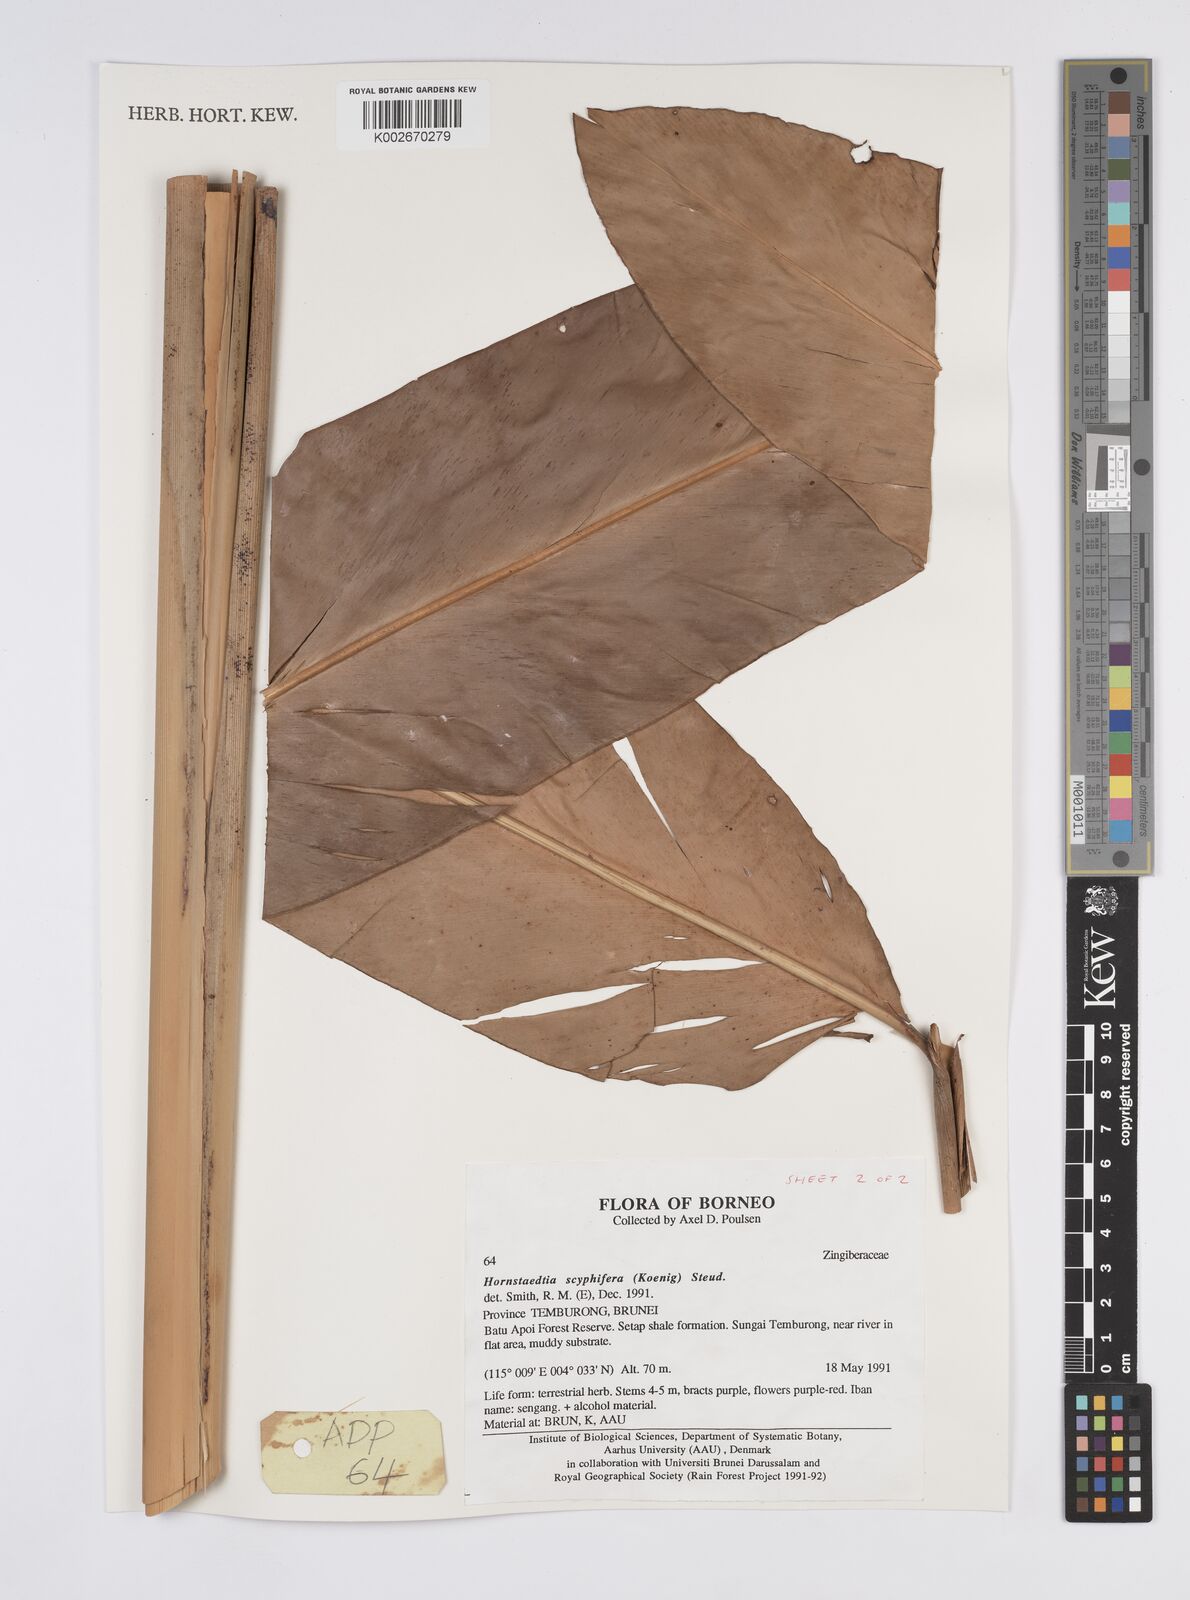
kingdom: Plantae
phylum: Tracheophyta
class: Liliopsida
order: Zingiberales
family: Zingiberaceae
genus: Hornstedtia
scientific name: Hornstedtia scyphifera
